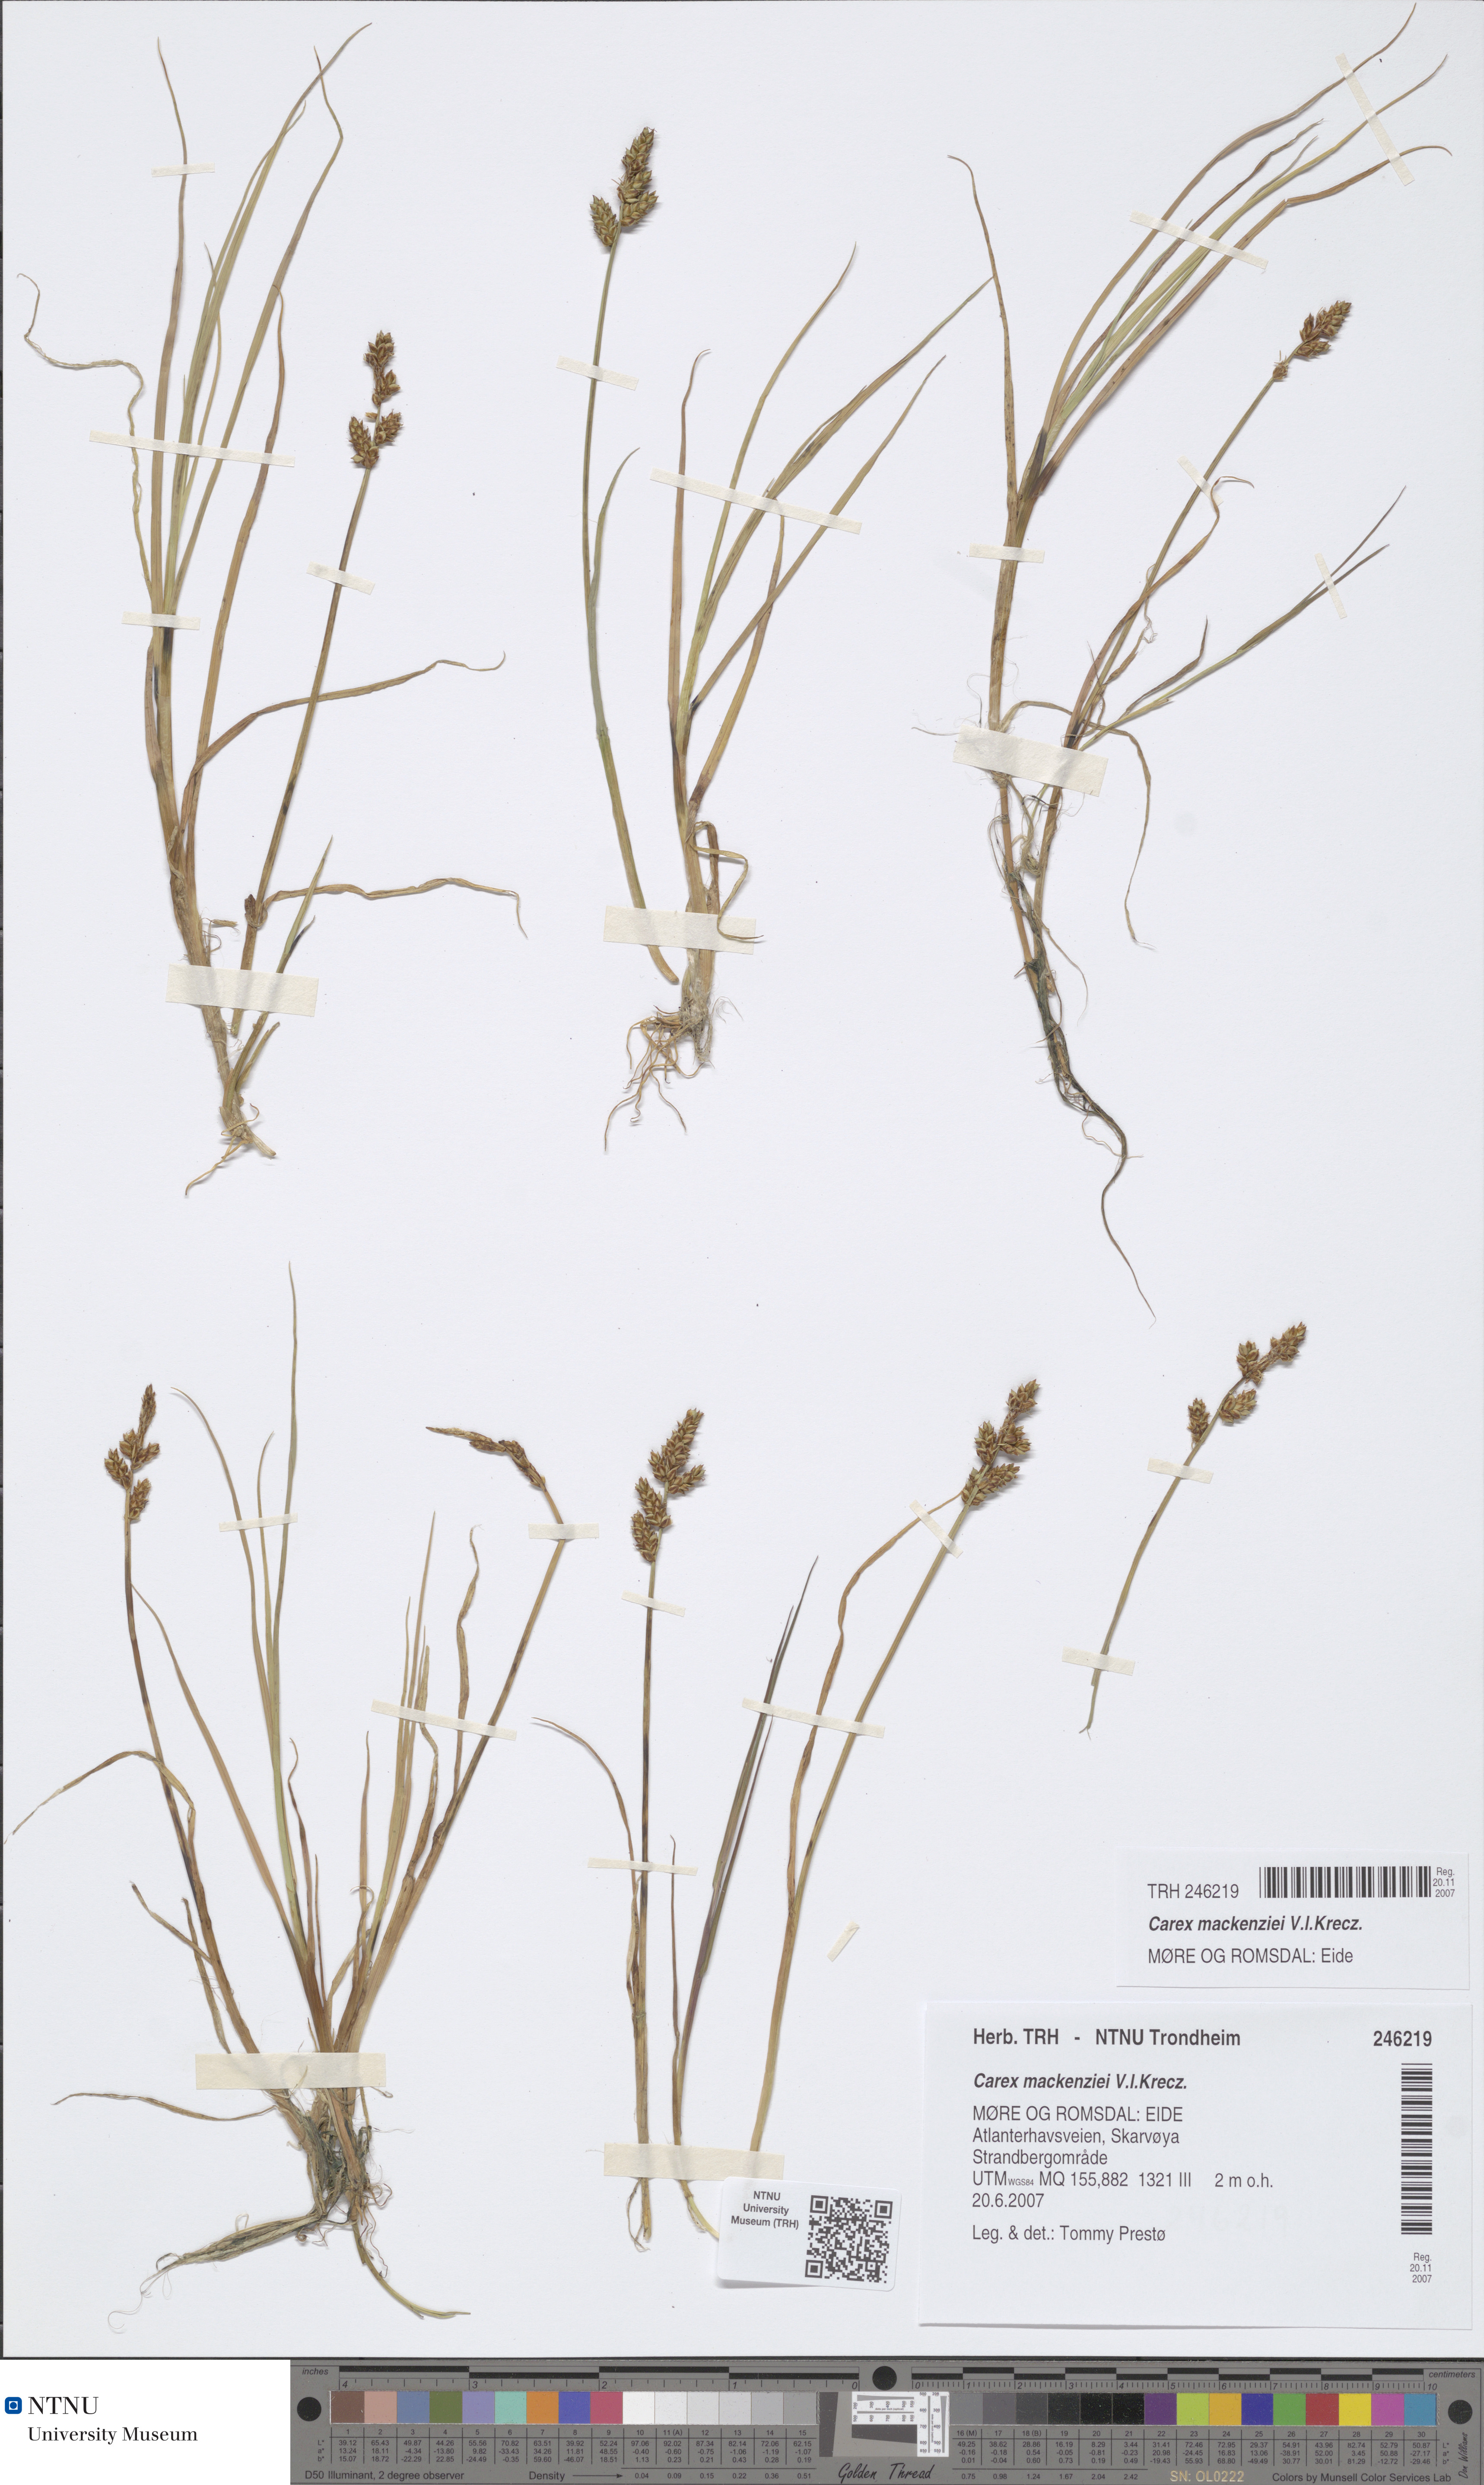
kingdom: Plantae
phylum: Tracheophyta
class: Liliopsida
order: Poales
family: Cyperaceae
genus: Carex
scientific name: Carex mackenziei
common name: Mackenzie's sedge
